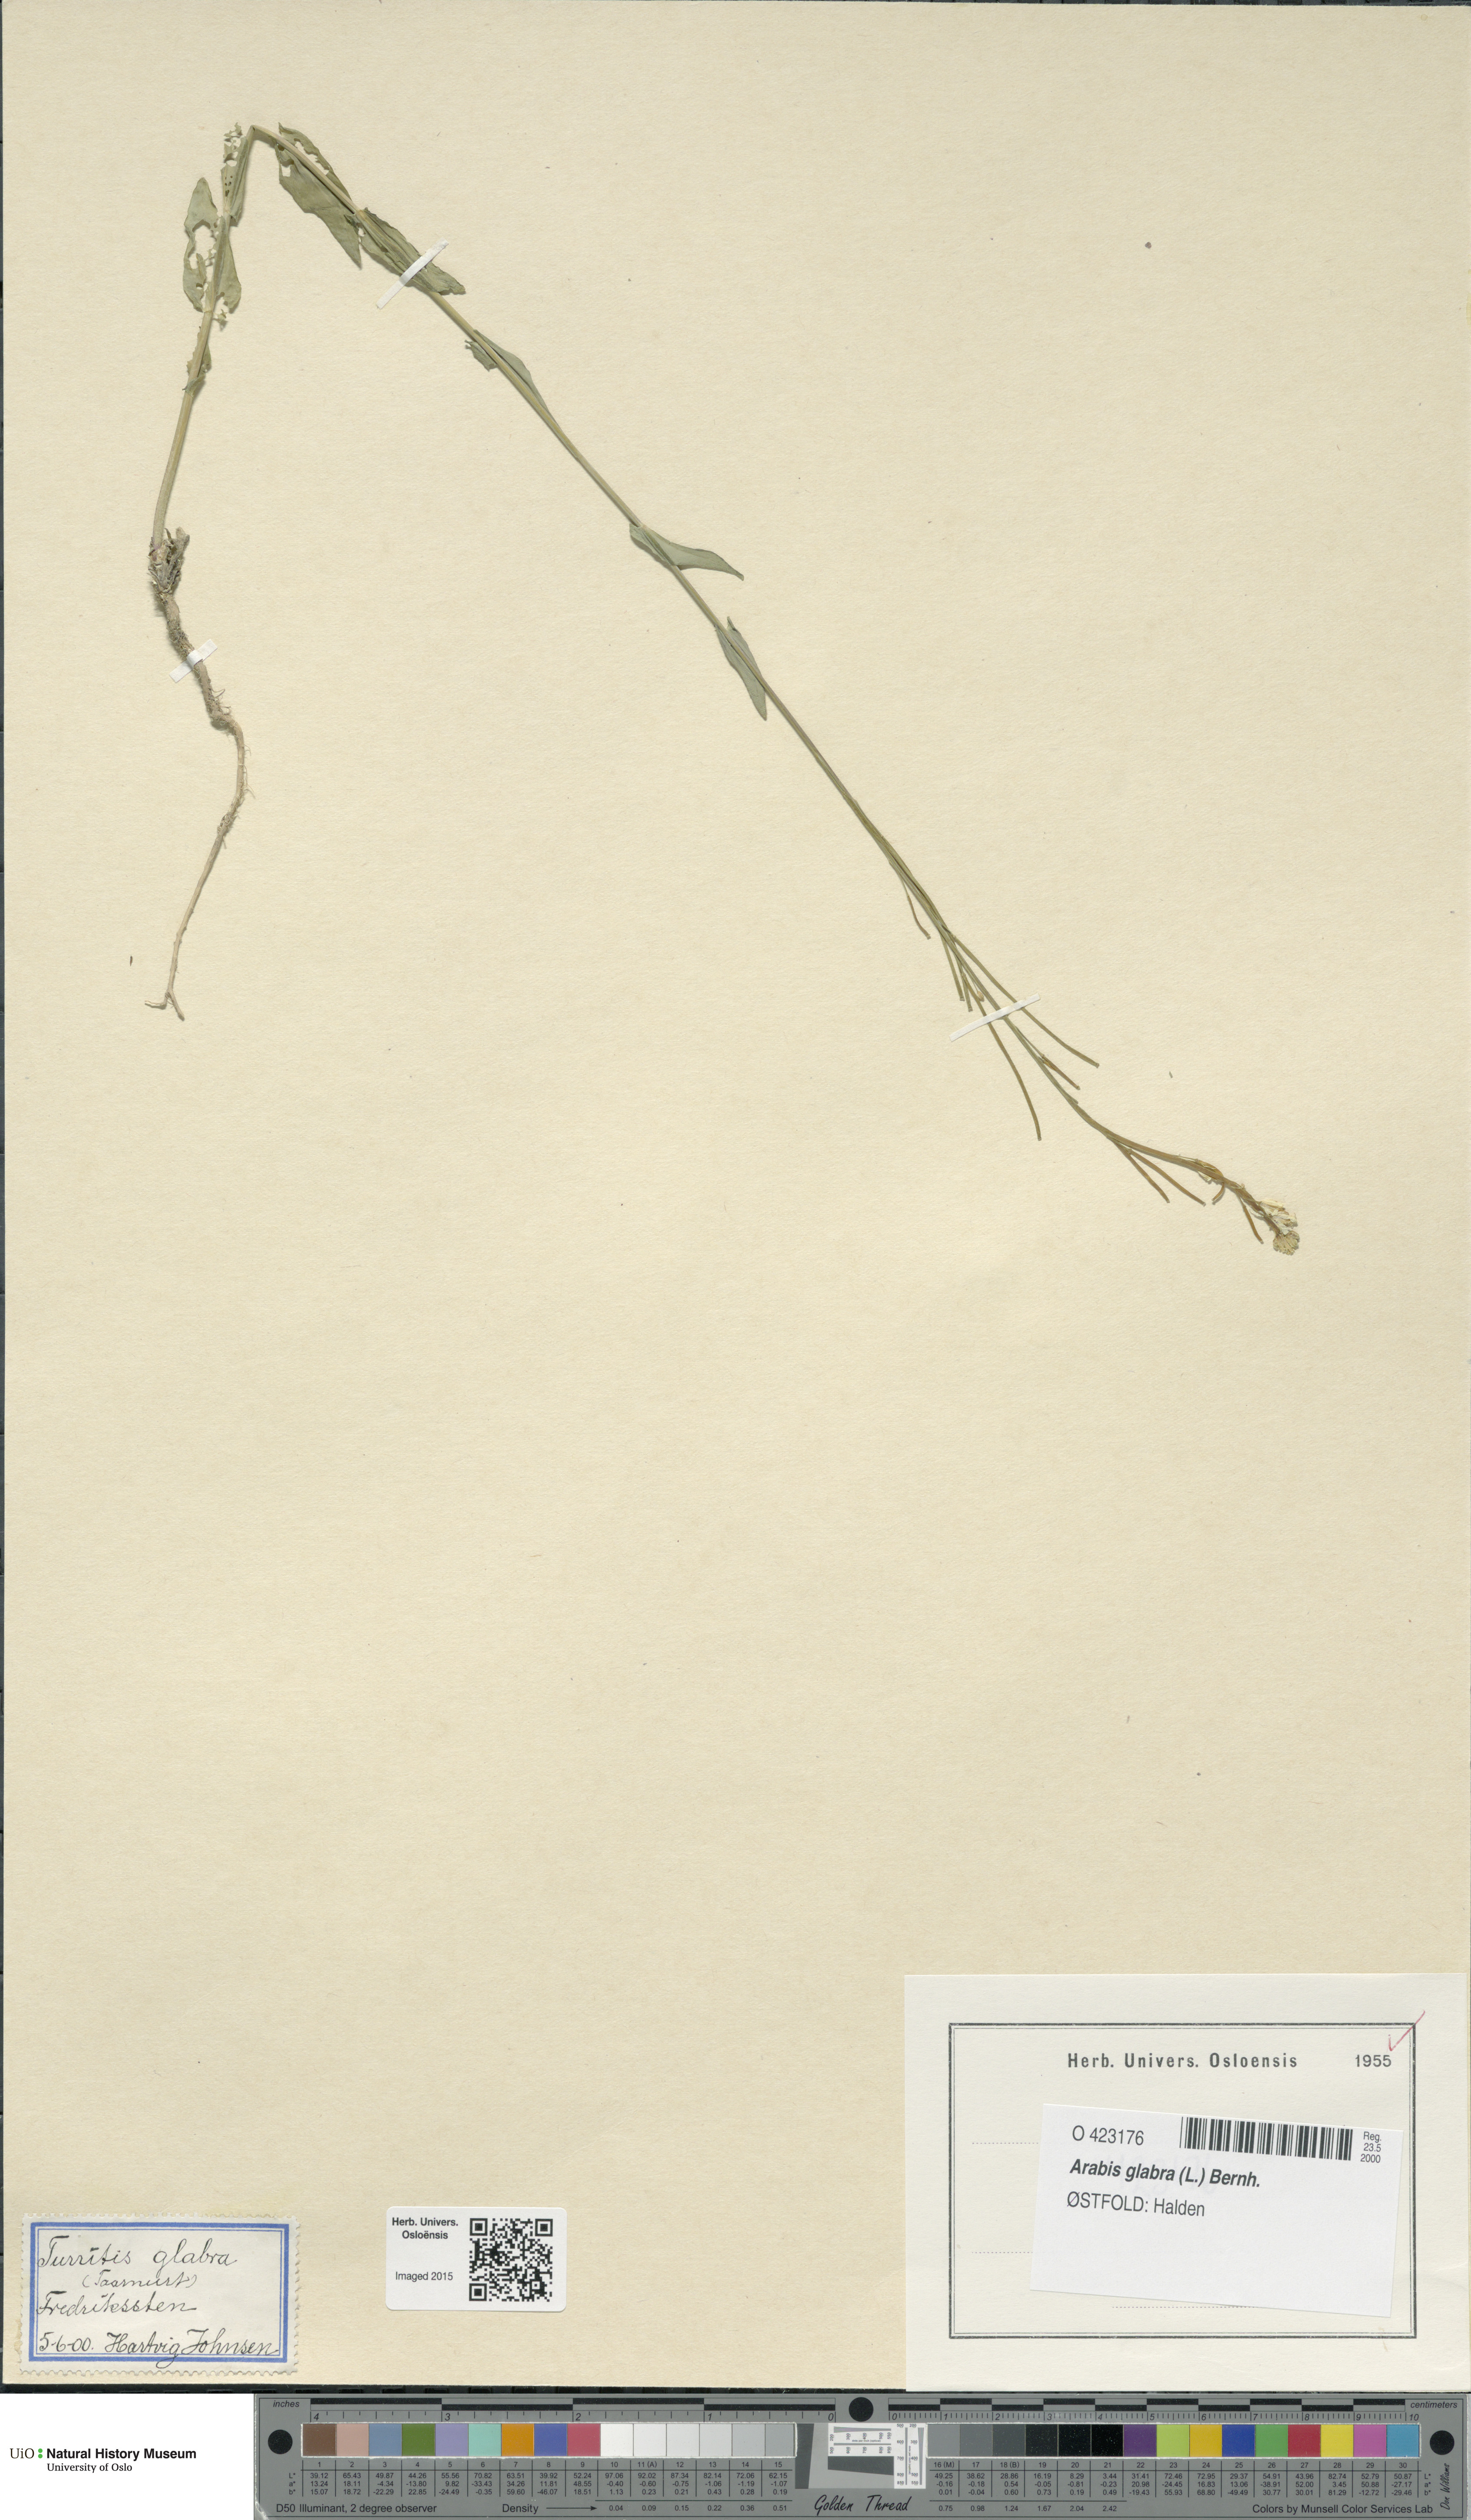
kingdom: Plantae
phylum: Tracheophyta
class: Magnoliopsida
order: Brassicales
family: Brassicaceae
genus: Turritis
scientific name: Turritis glabra
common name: Tower rockcress
